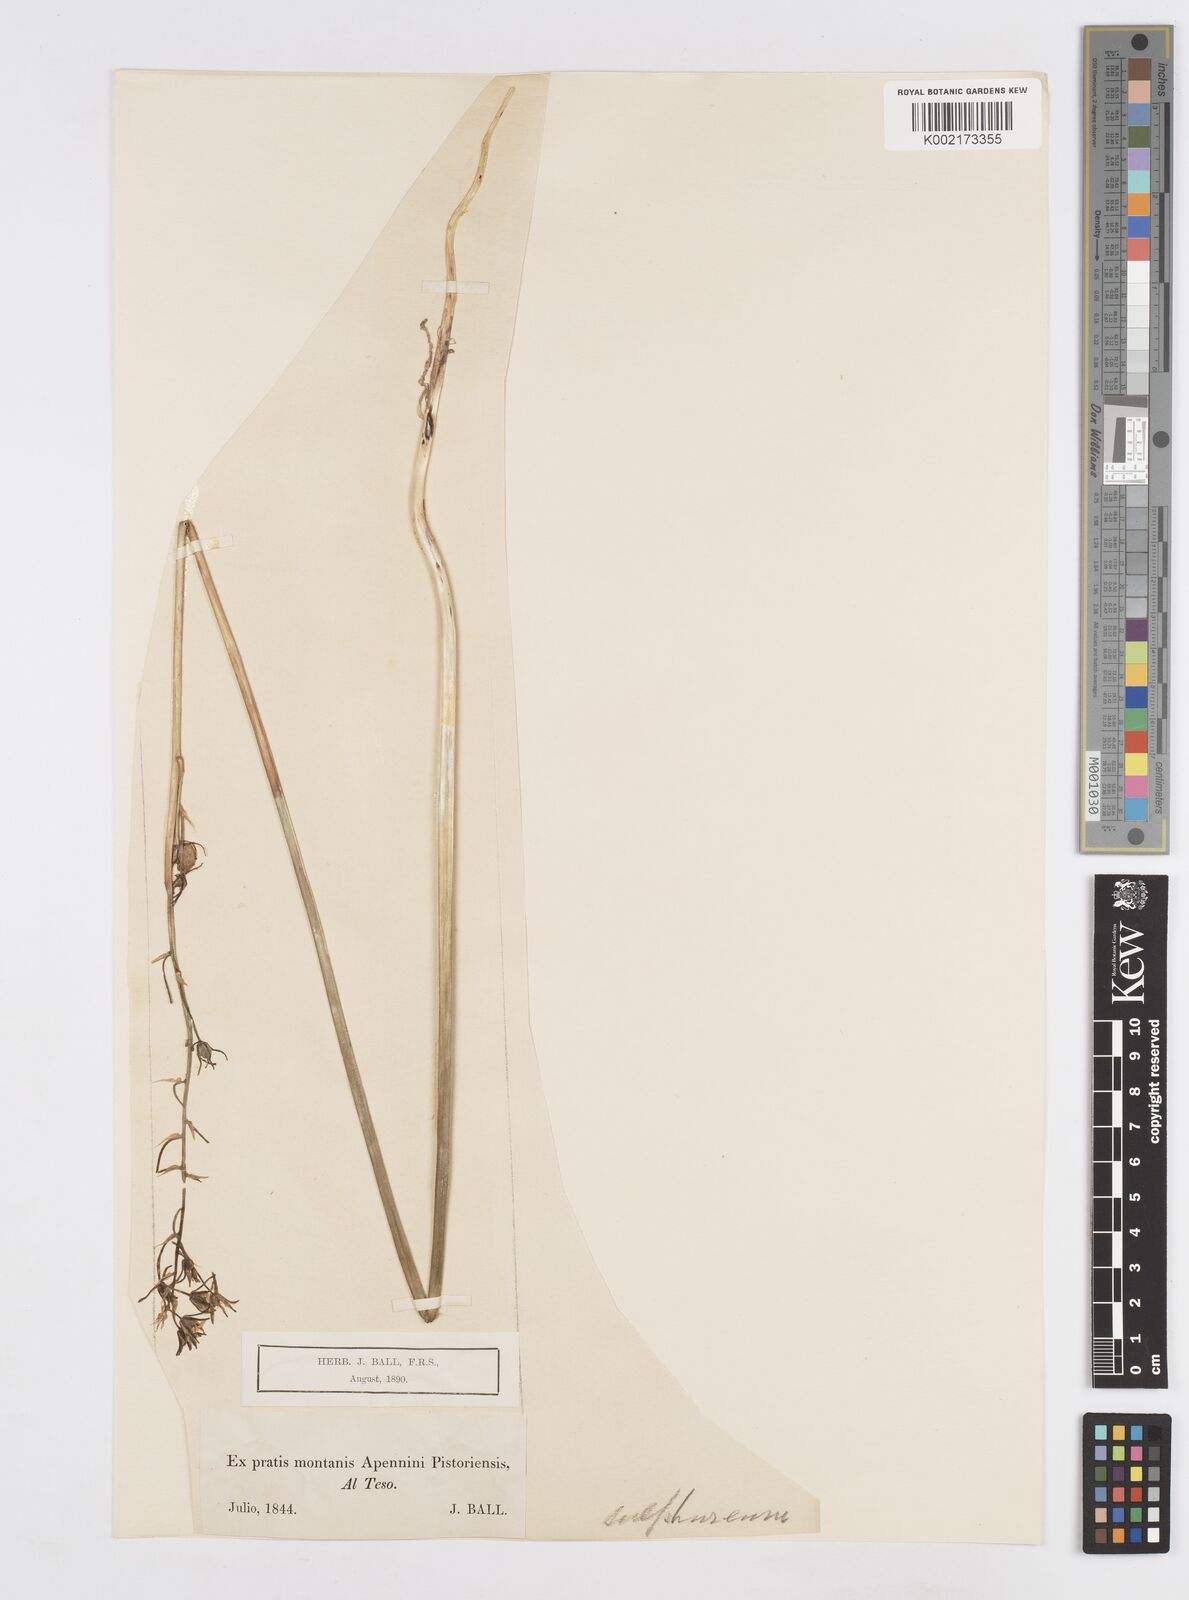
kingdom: Plantae
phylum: Tracheophyta
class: Liliopsida
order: Asparagales
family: Asparagaceae
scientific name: Asparagaceae
